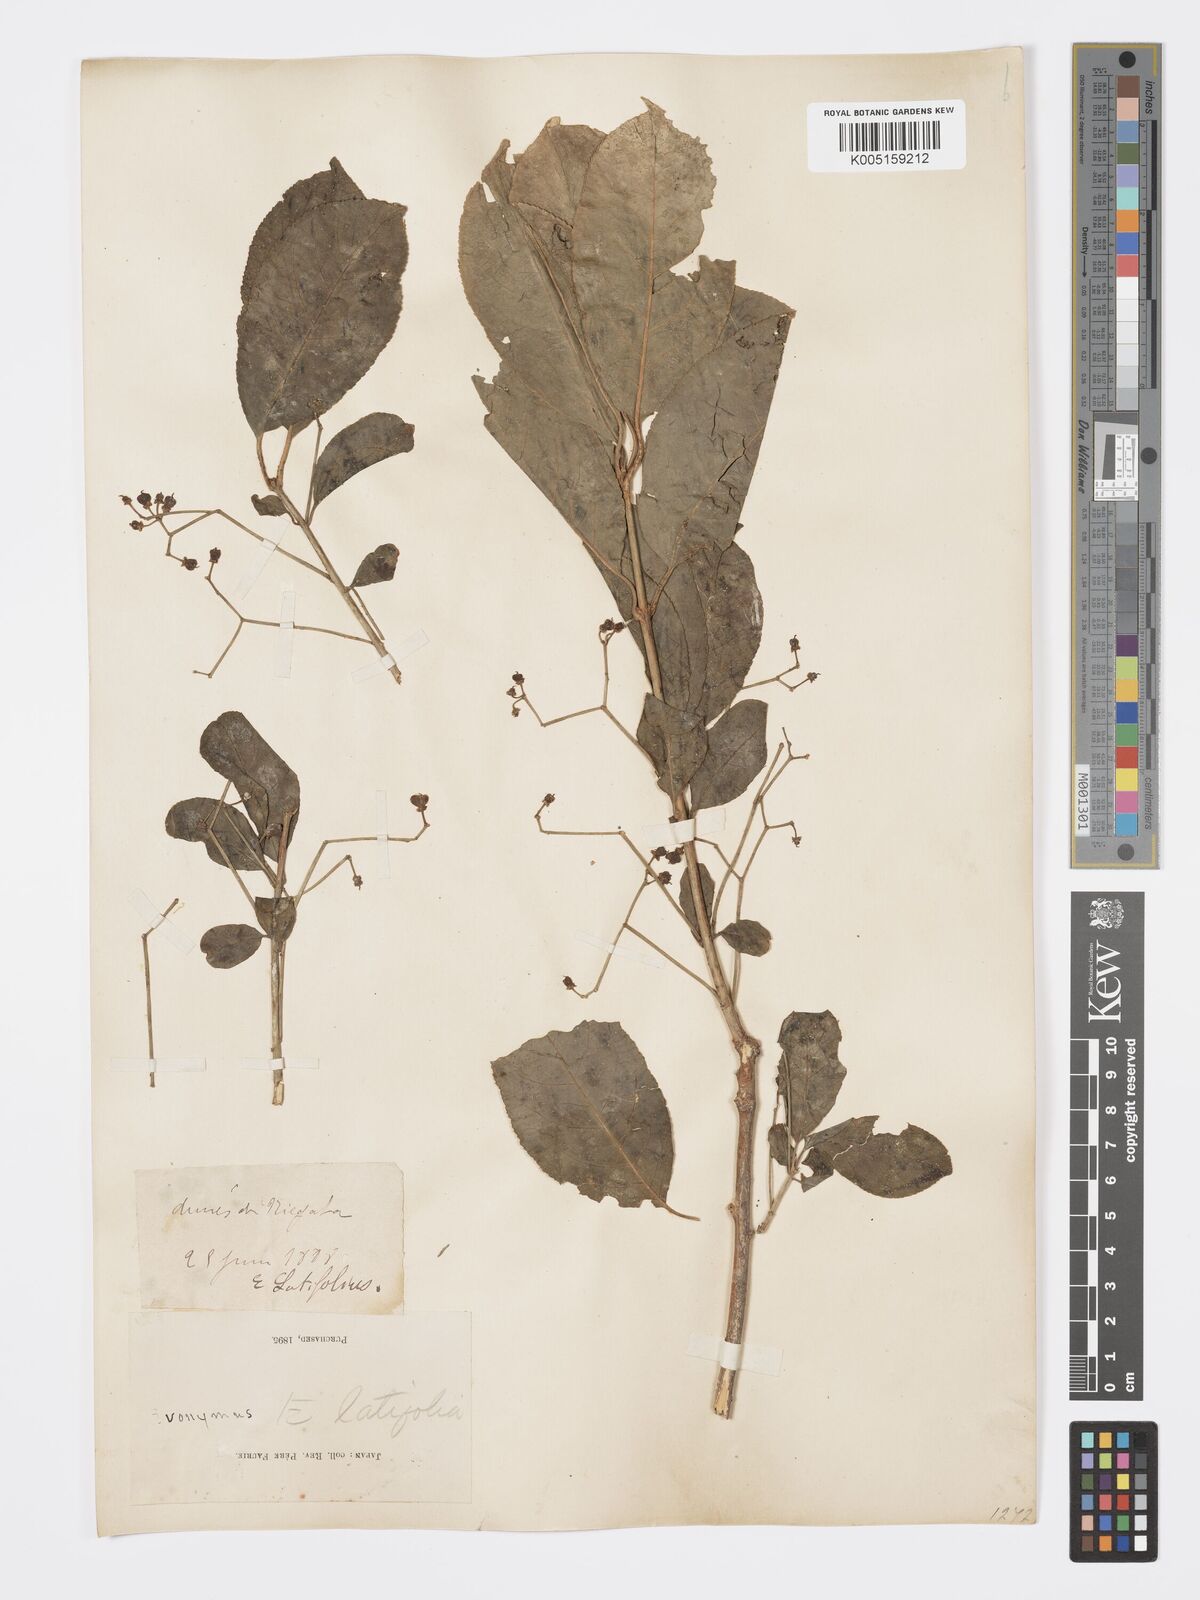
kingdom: Plantae
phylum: Tracheophyta
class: Magnoliopsida
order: Celastrales
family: Celastraceae
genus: Euonymus
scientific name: Euonymus hamiltonianus
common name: Hamilton's spindletree
